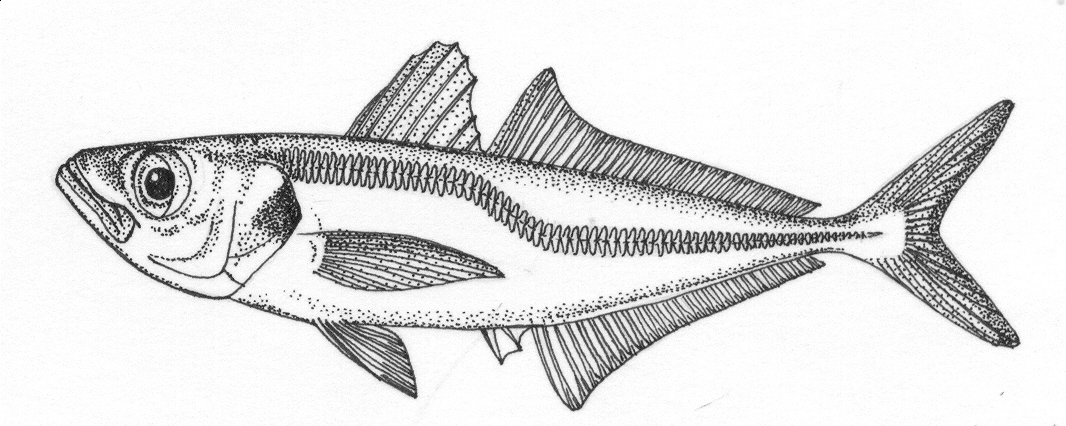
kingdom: Animalia
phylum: Chordata
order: Perciformes
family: Carangidae
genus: Trachurus
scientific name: Trachurus trachurus
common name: Horse mackerel
